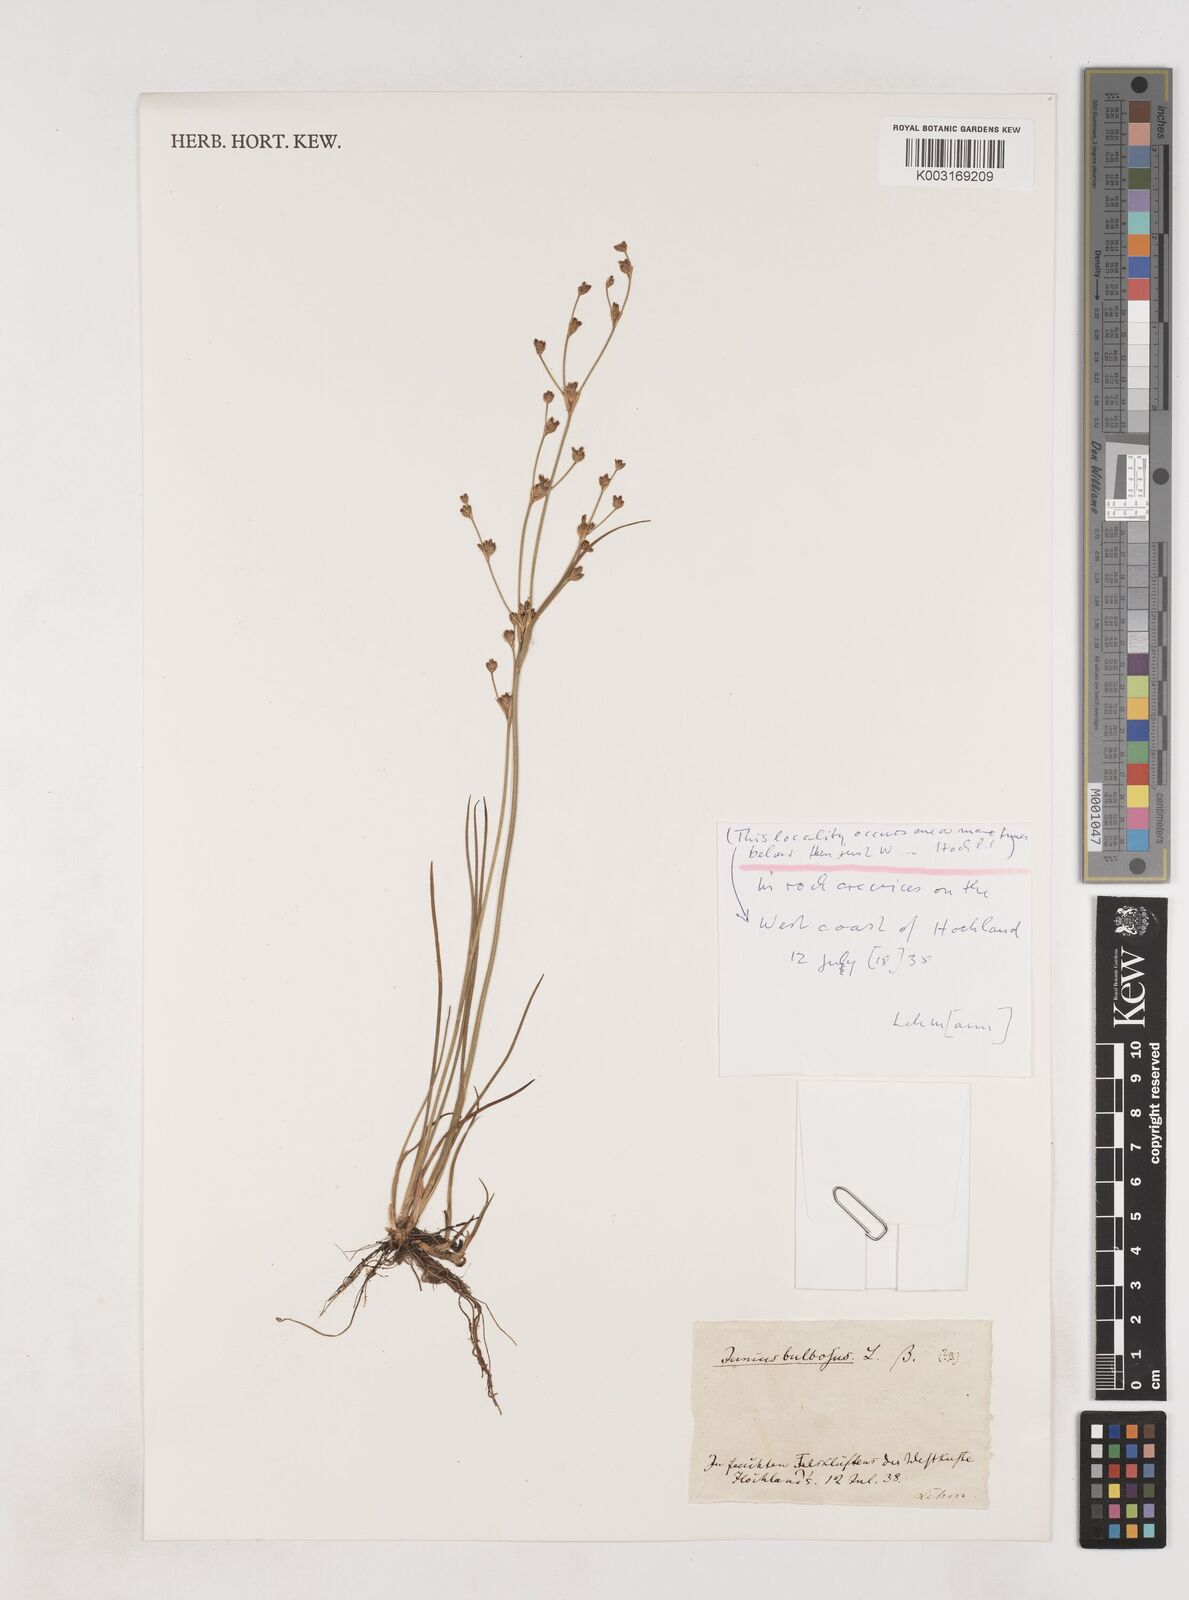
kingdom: Plantae
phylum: Tracheophyta
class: Liliopsida
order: Poales
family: Juncaceae
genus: Juncus
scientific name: Juncus bulbosus
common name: Bulbous rush
